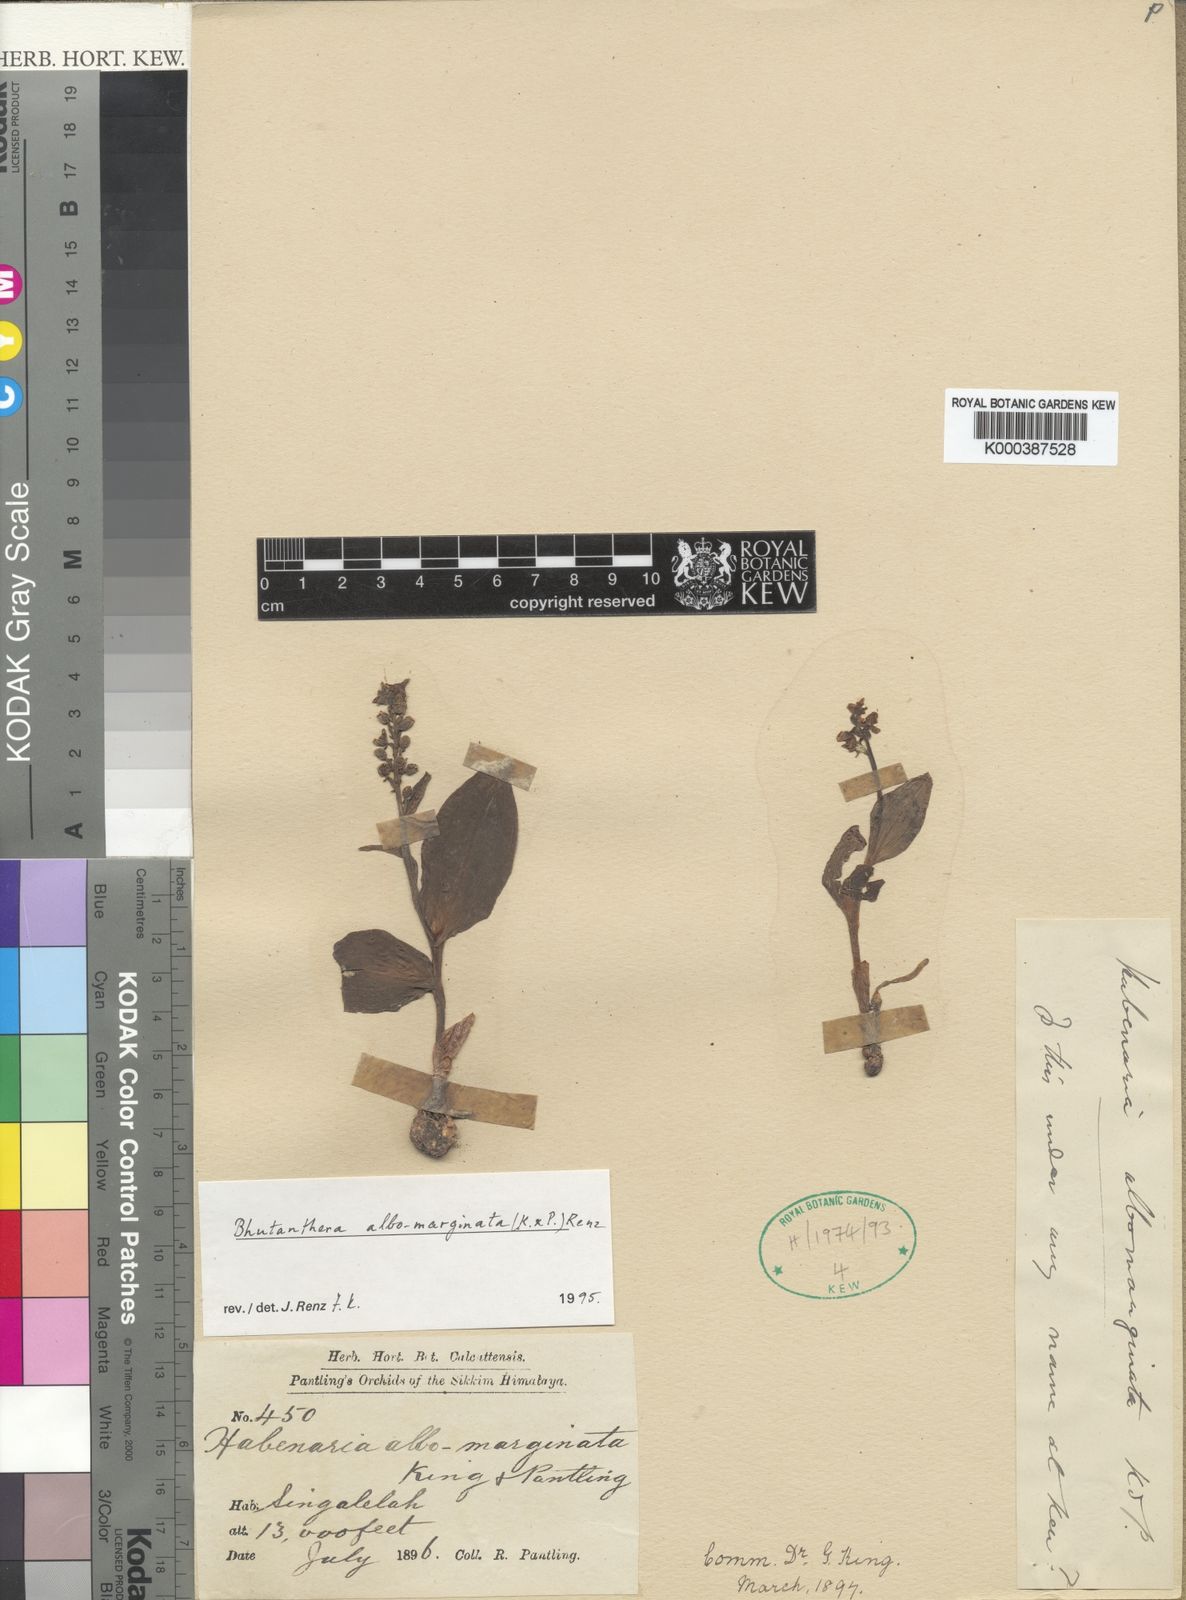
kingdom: Plantae
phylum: Tracheophyta
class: Liliopsida
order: Asparagales
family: Orchidaceae
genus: Herminium
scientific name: Herminium albomarginatum
